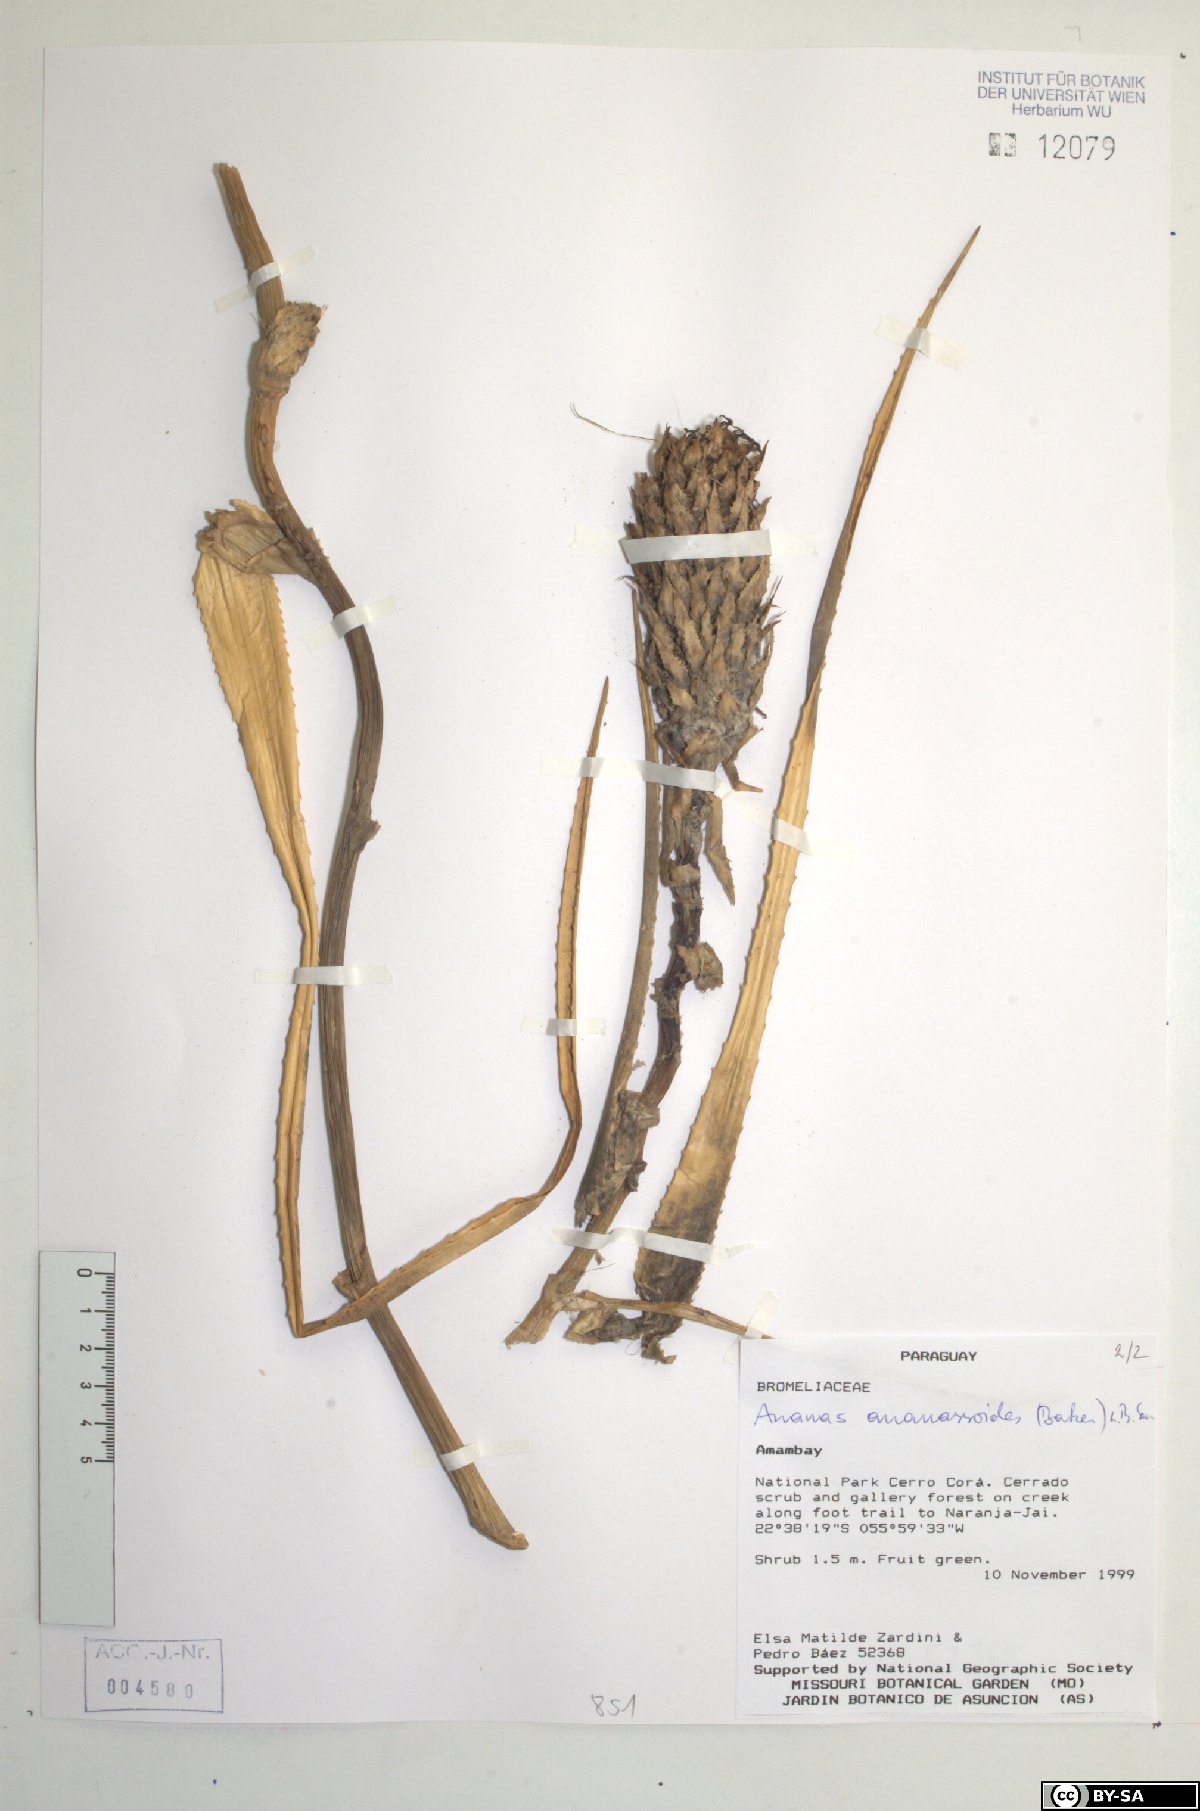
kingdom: Plantae
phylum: Tracheophyta
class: Liliopsida
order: Poales
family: Bromeliaceae
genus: Ananas
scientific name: Ananas comosus
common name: Pineapple
